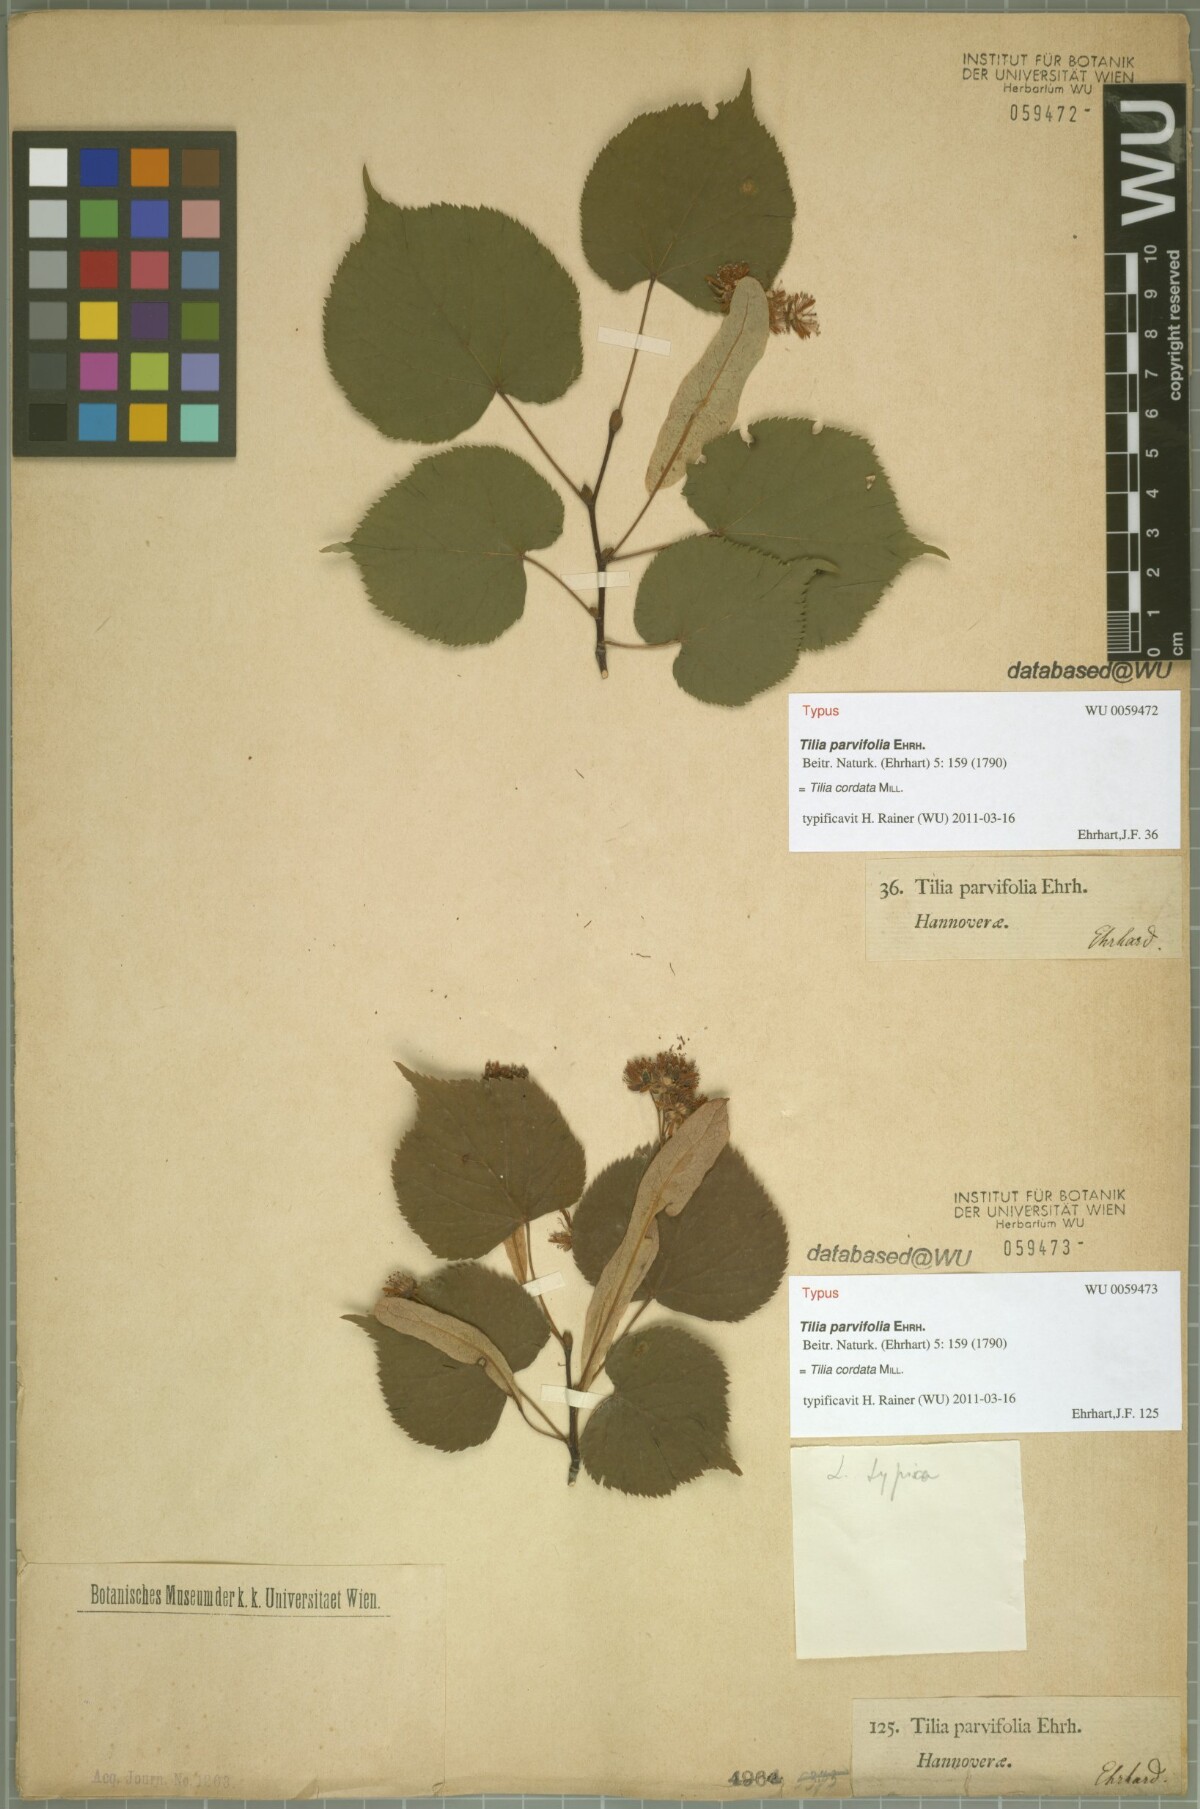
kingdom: Plantae
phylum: Tracheophyta
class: Magnoliopsida
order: Malvales
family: Malvaceae
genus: Tilia
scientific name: Tilia cordata
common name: Small-leaved lime
